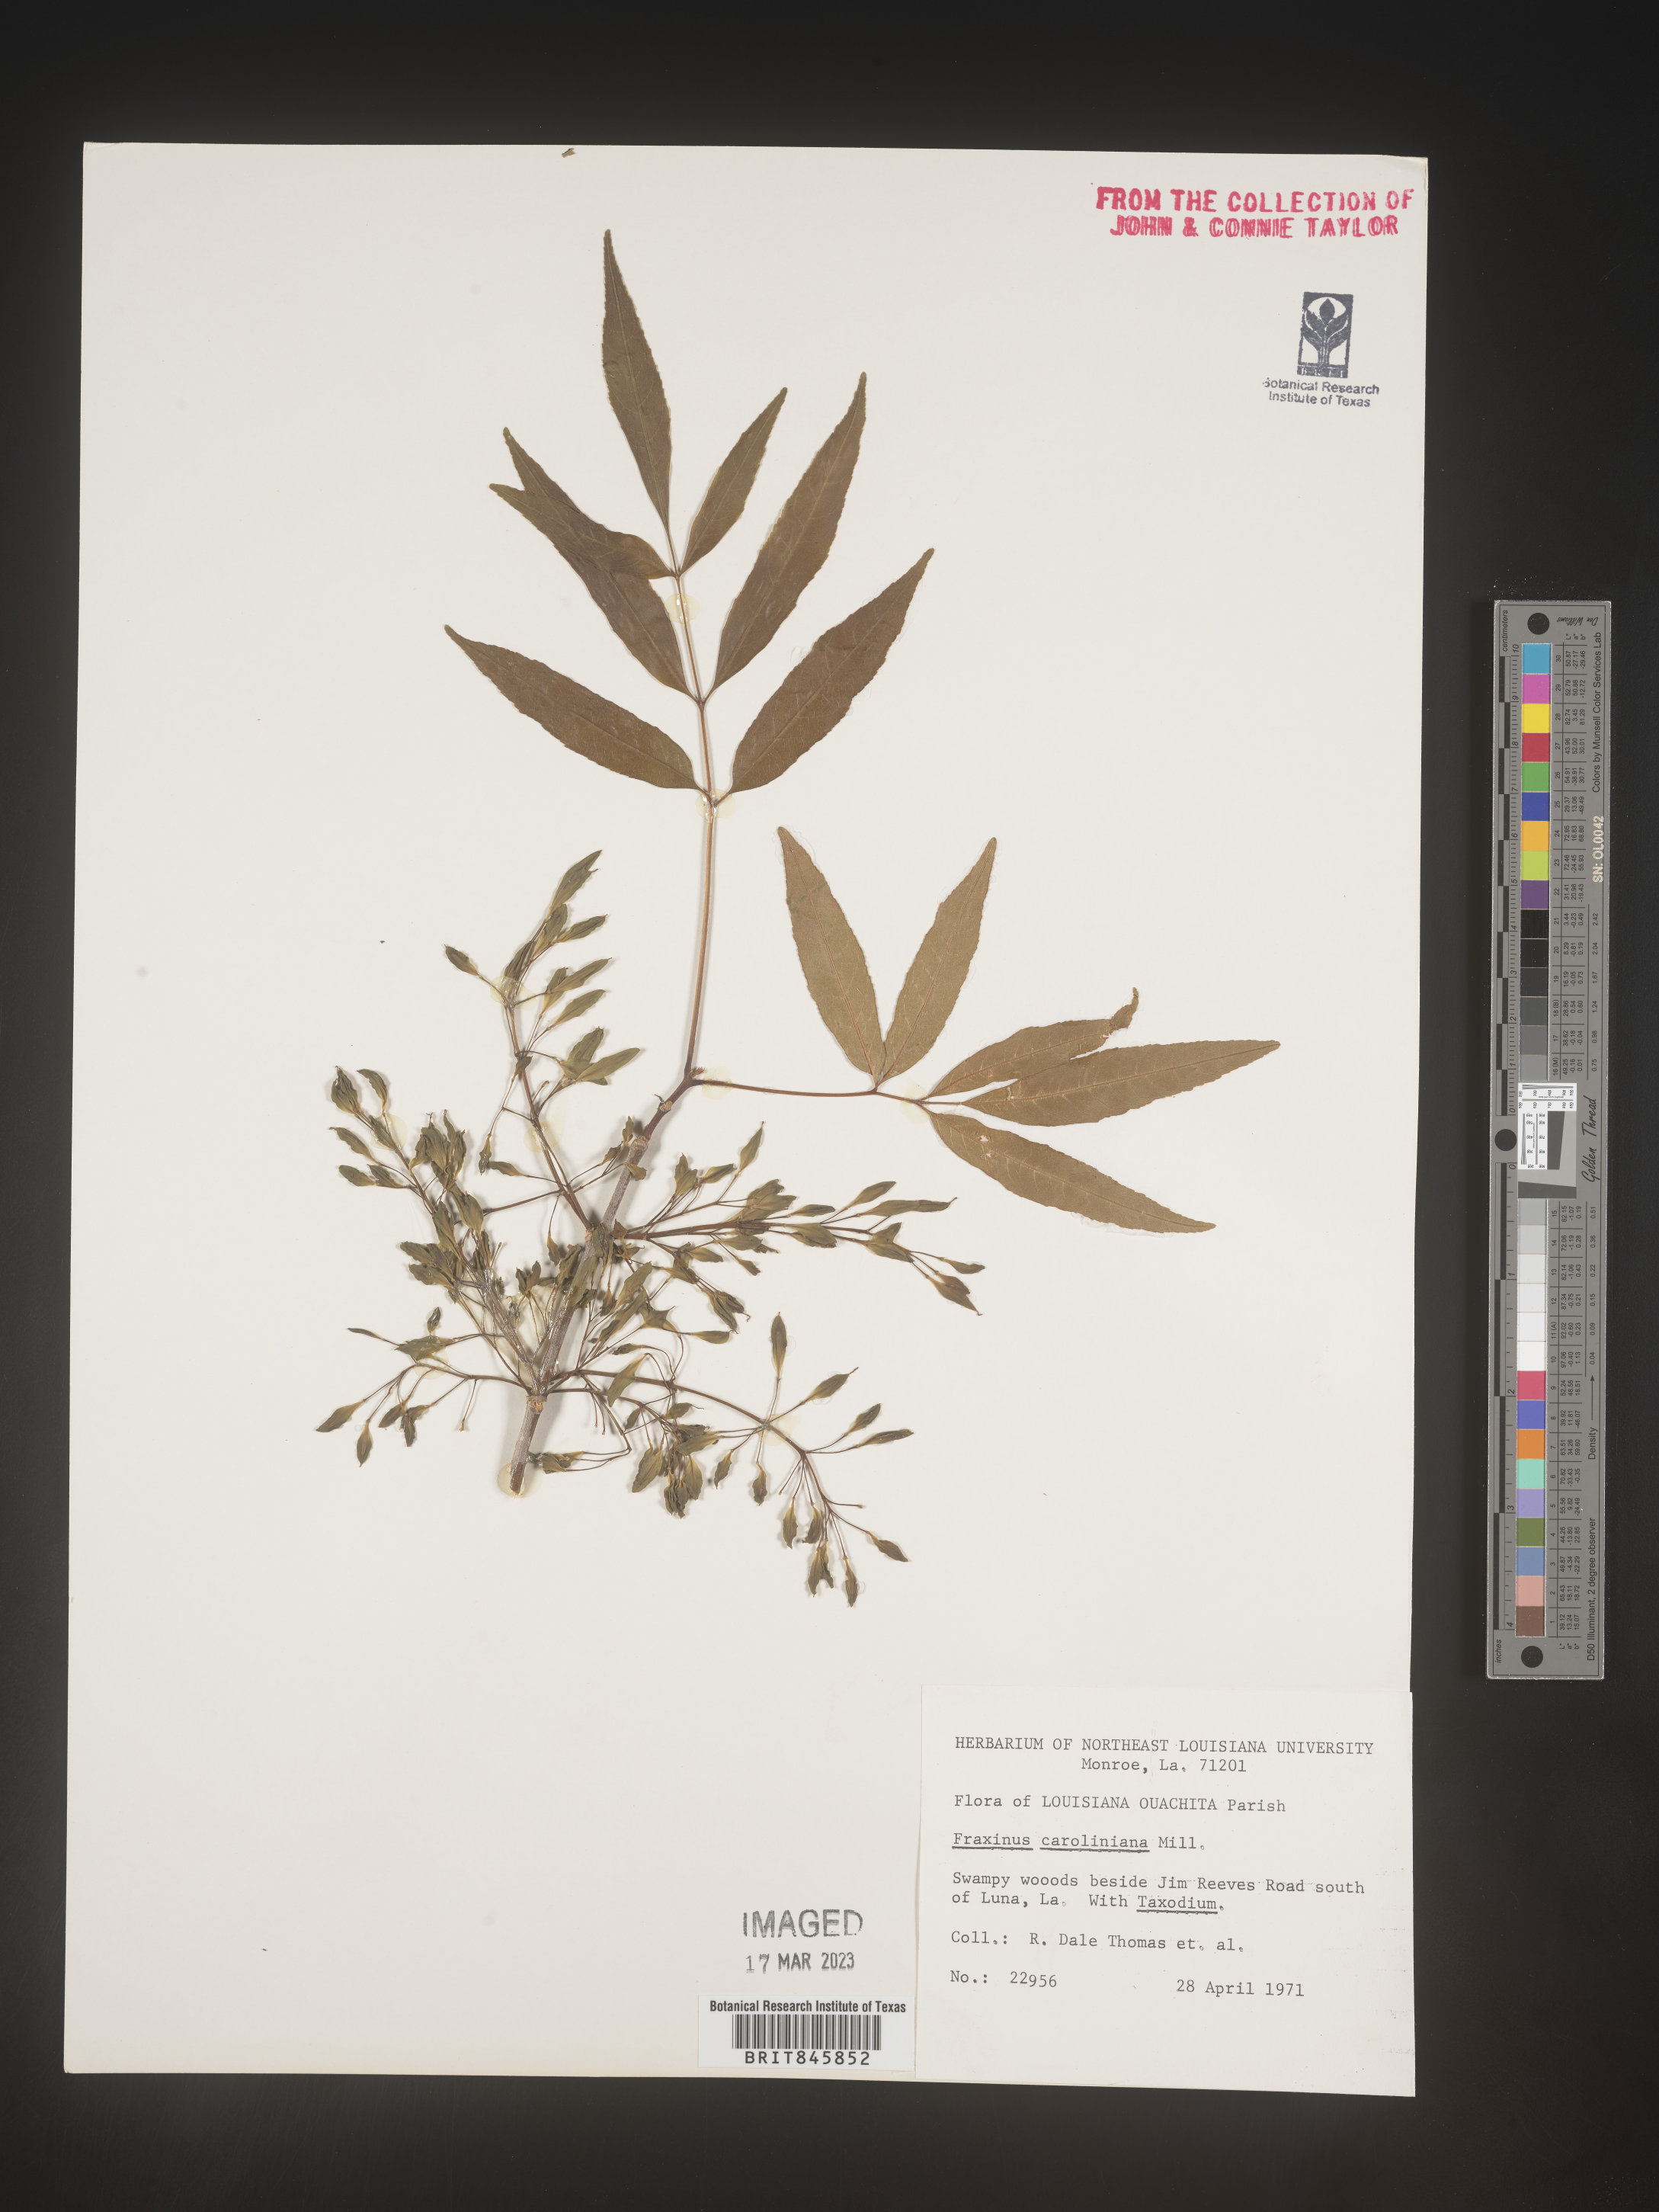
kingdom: Plantae
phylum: Tracheophyta
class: Magnoliopsida
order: Lamiales
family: Oleaceae
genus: Fraxinus
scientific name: Fraxinus caroliniana
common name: Carolina ash
